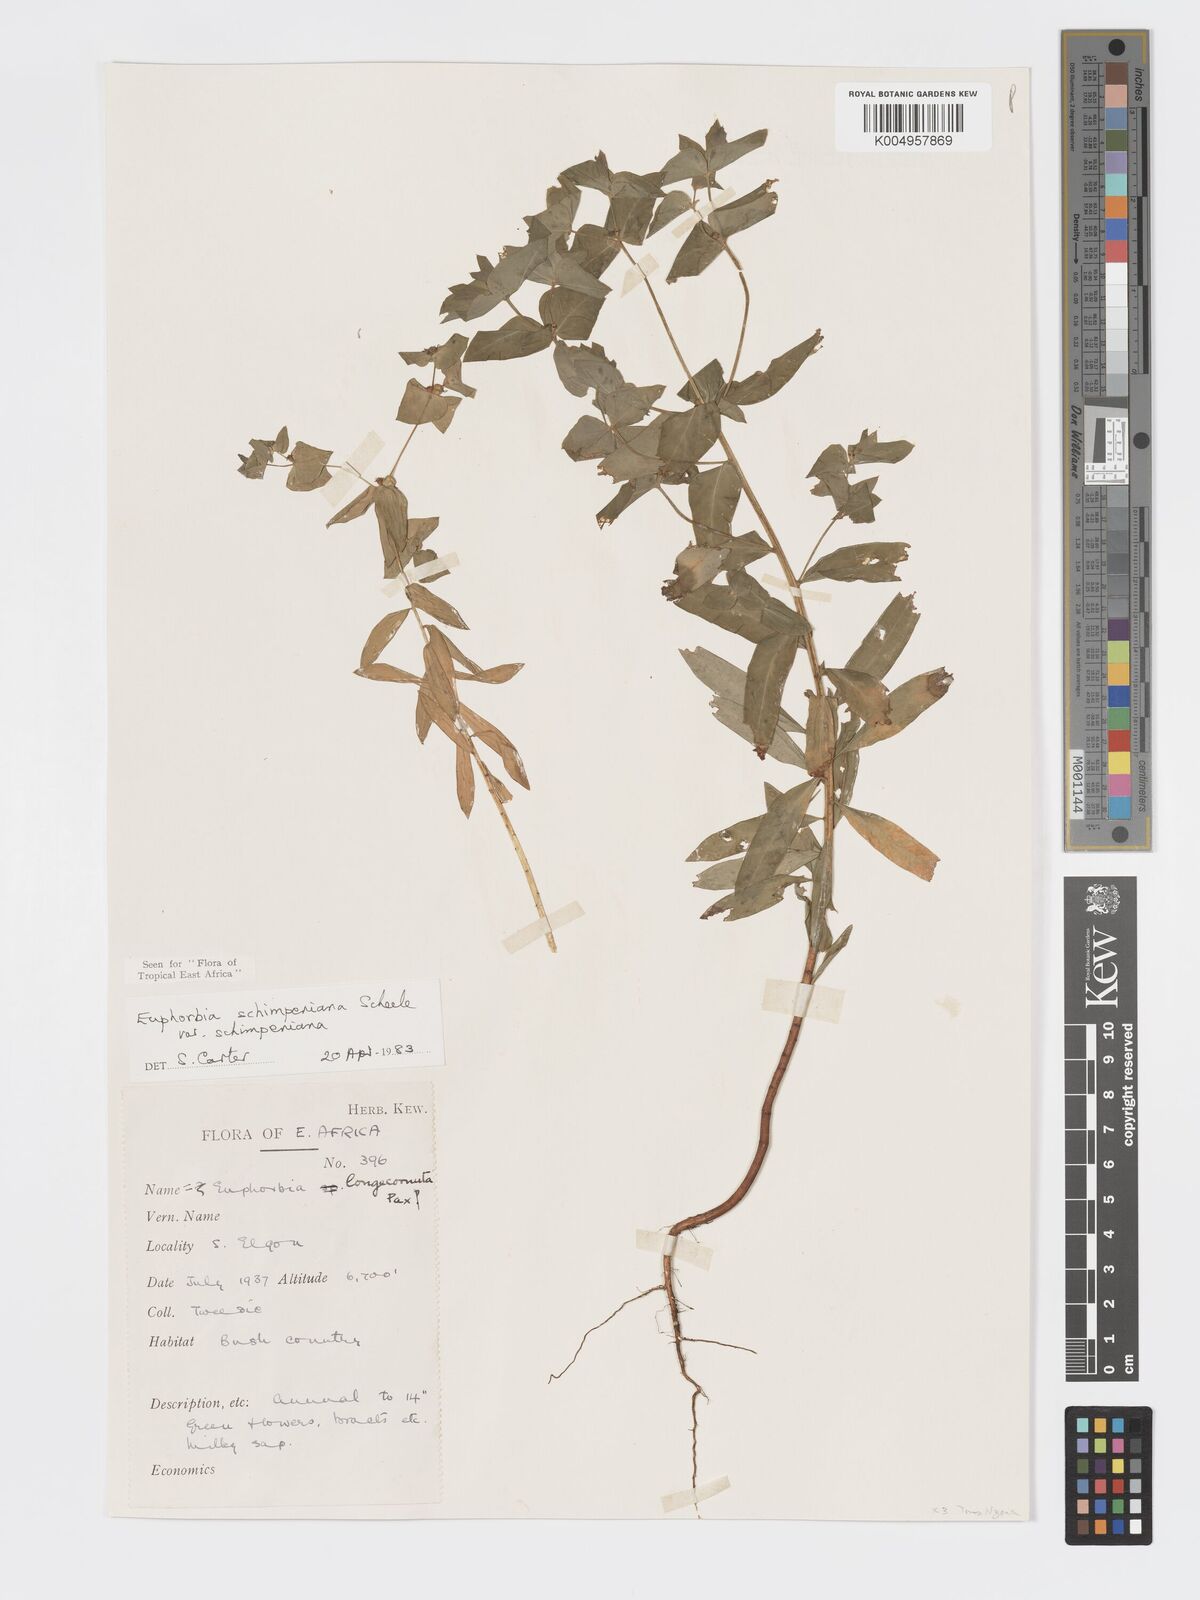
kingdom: Plantae
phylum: Tracheophyta
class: Magnoliopsida
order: Malpighiales
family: Euphorbiaceae
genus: Euphorbia
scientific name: Euphorbia schimperiana
